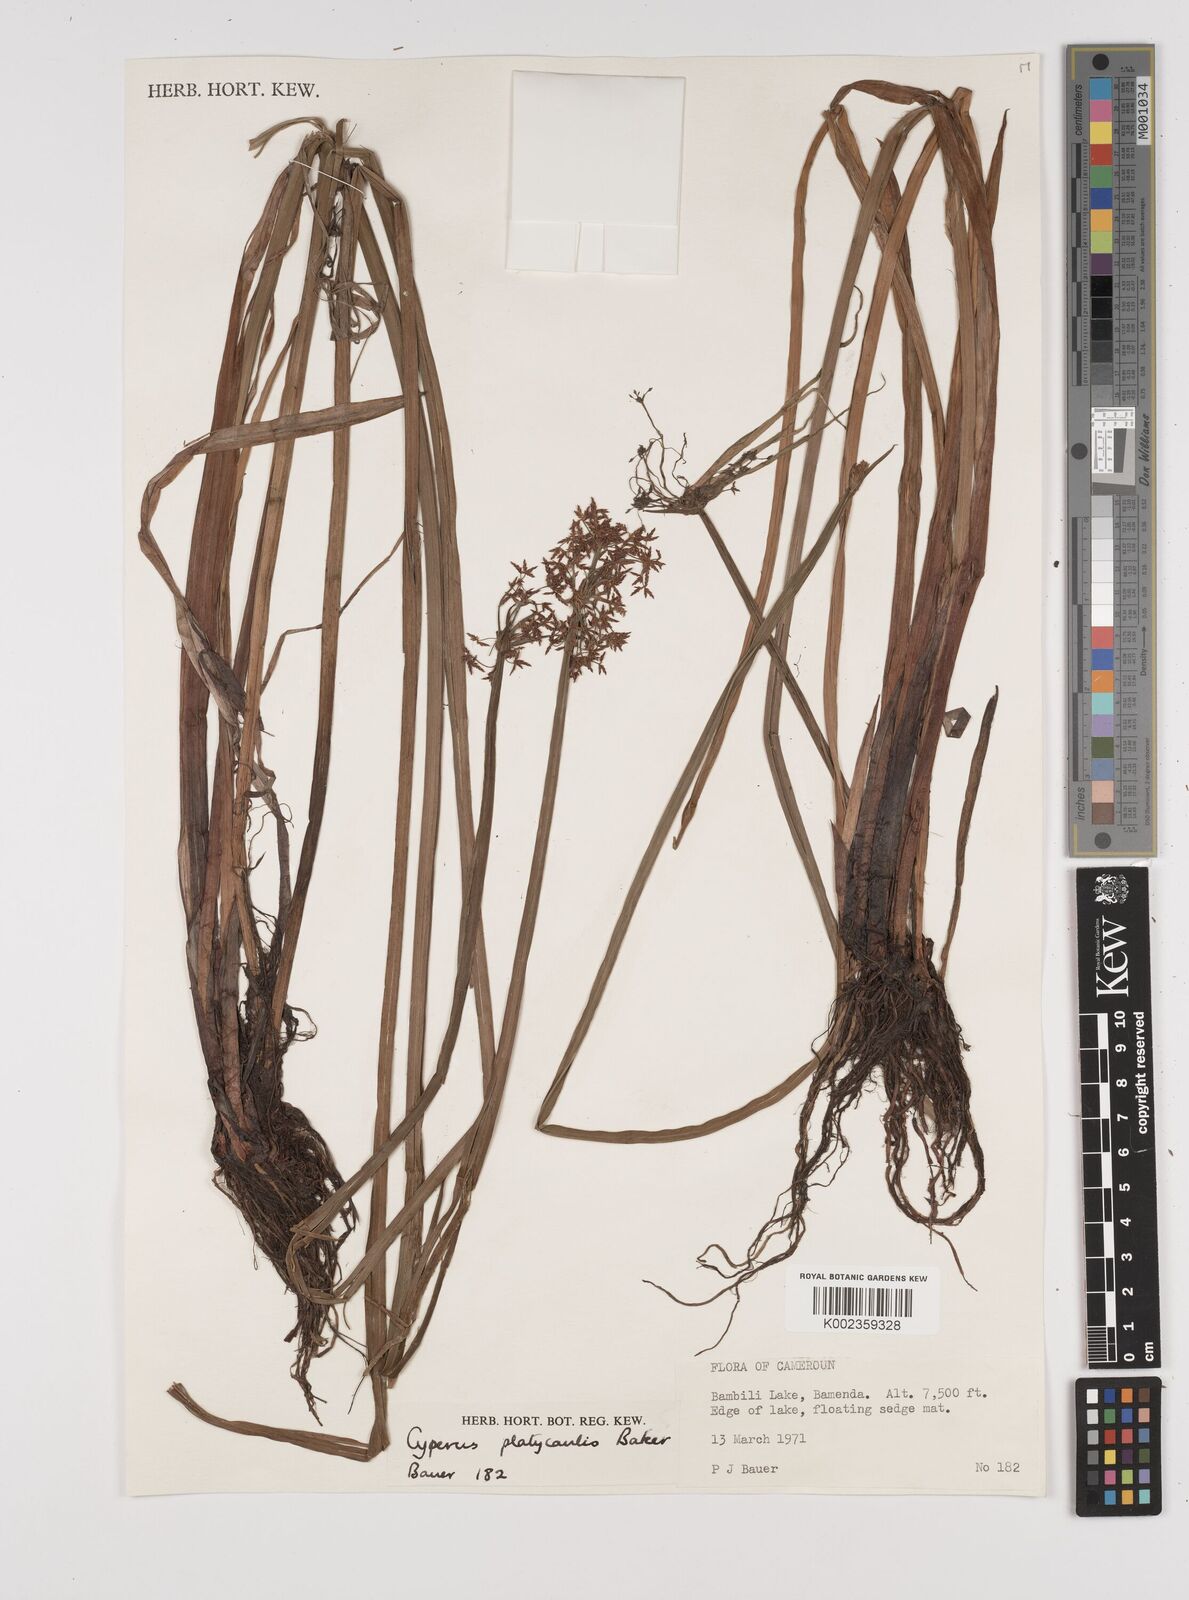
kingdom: Plantae
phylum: Tracheophyta
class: Liliopsida
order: Poales
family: Cyperaceae
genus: Cyperus
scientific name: Cyperus platycaulis
